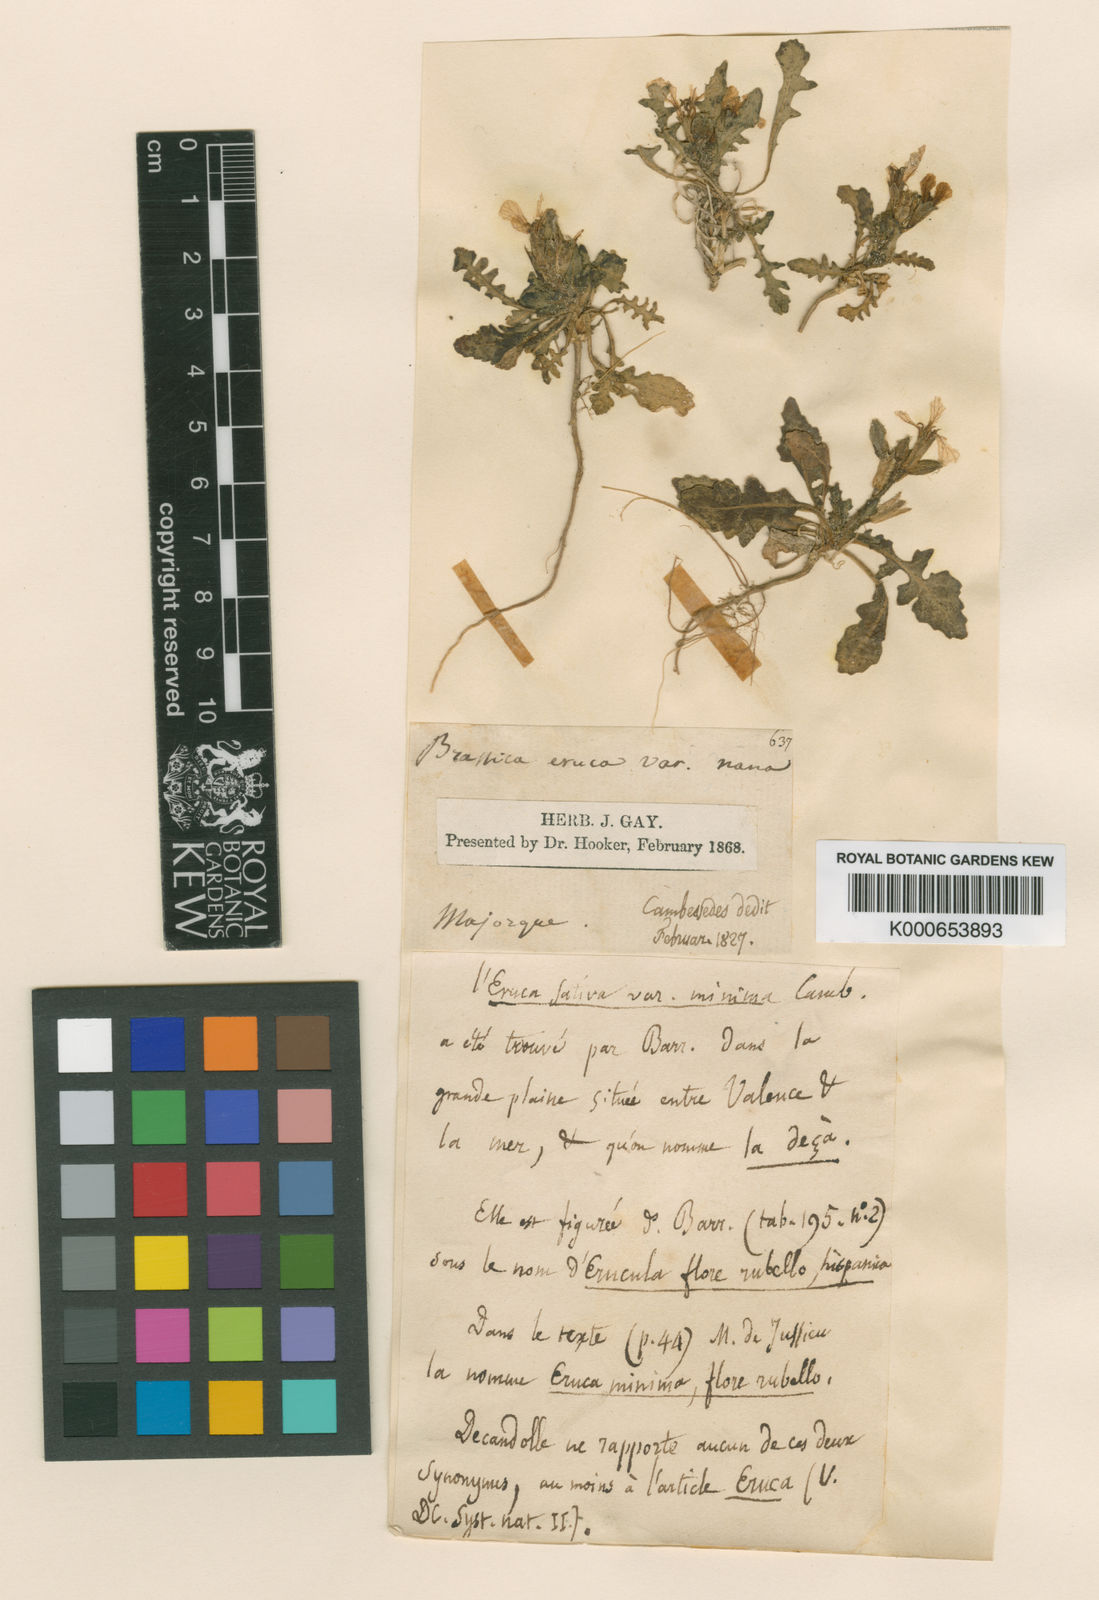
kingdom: Plantae
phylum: Tracheophyta
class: Magnoliopsida
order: Brassicales
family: Brassicaceae
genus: Eruca
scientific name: Eruca vesicaria
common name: Garden rocket
